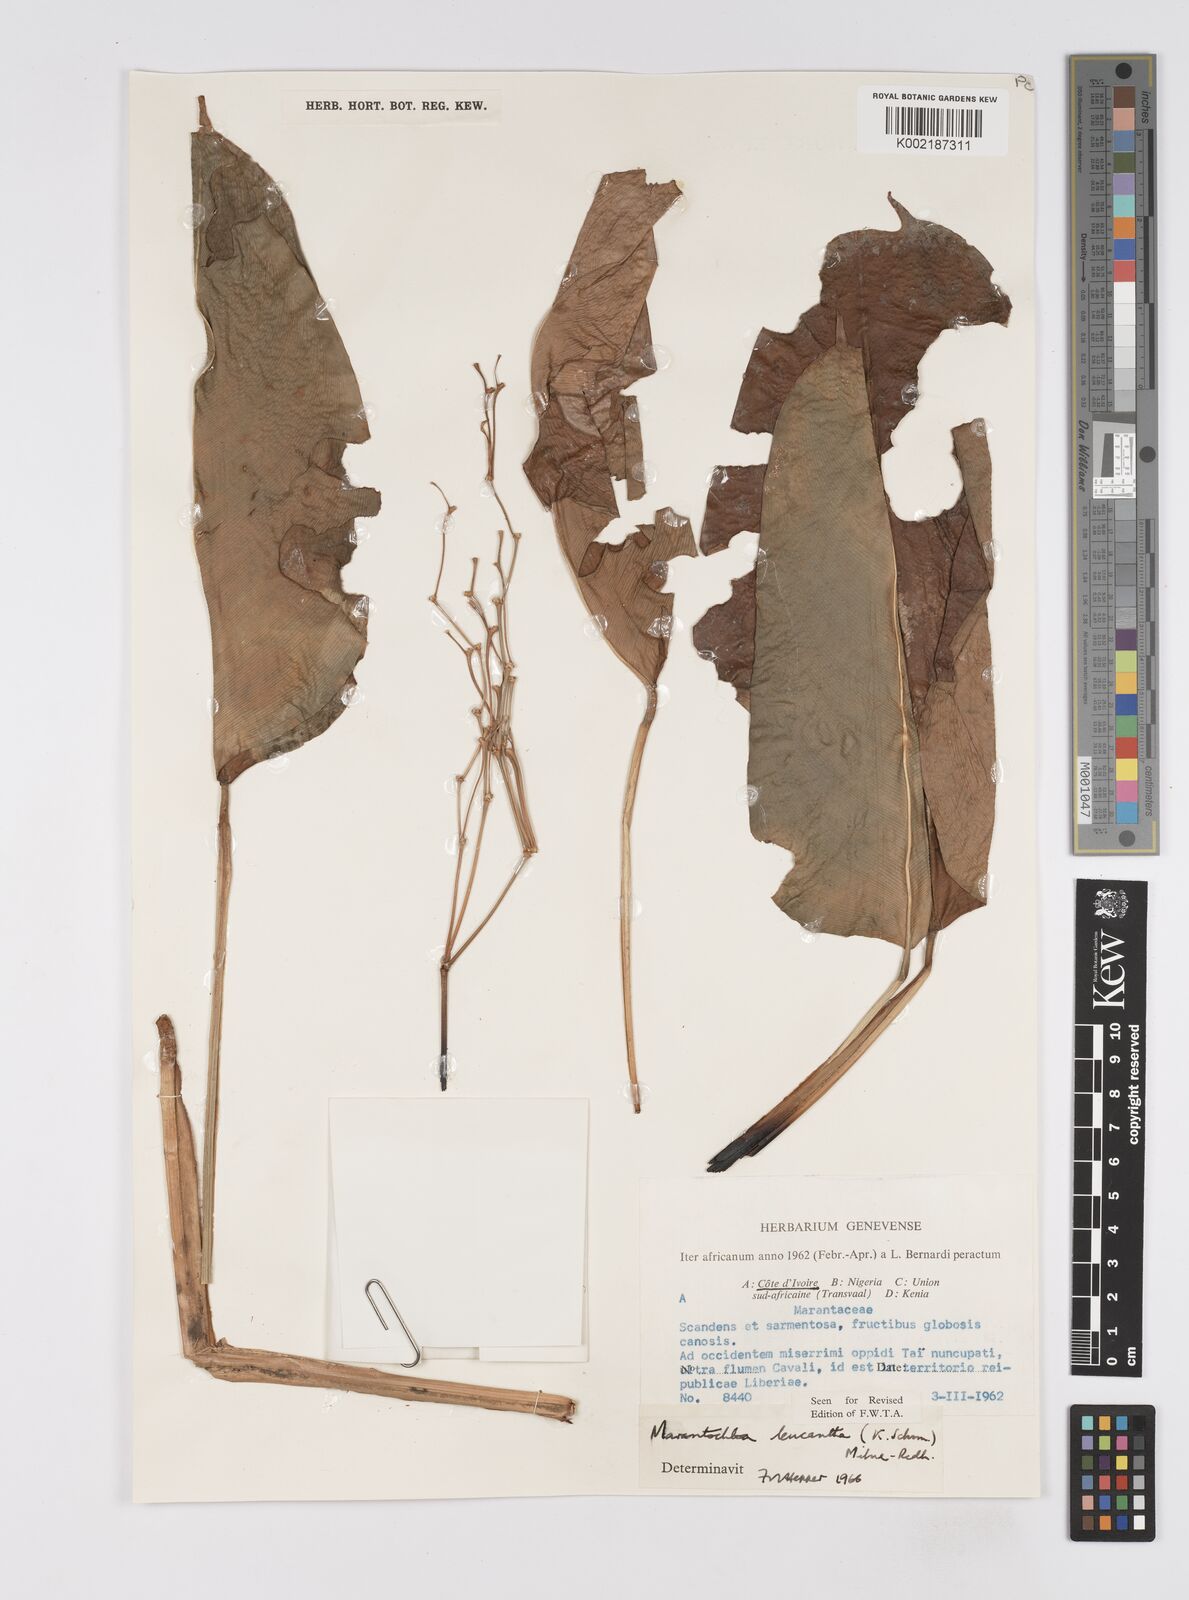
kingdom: Plantae
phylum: Tracheophyta
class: Liliopsida
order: Zingiberales
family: Marantaceae
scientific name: Marantaceae
